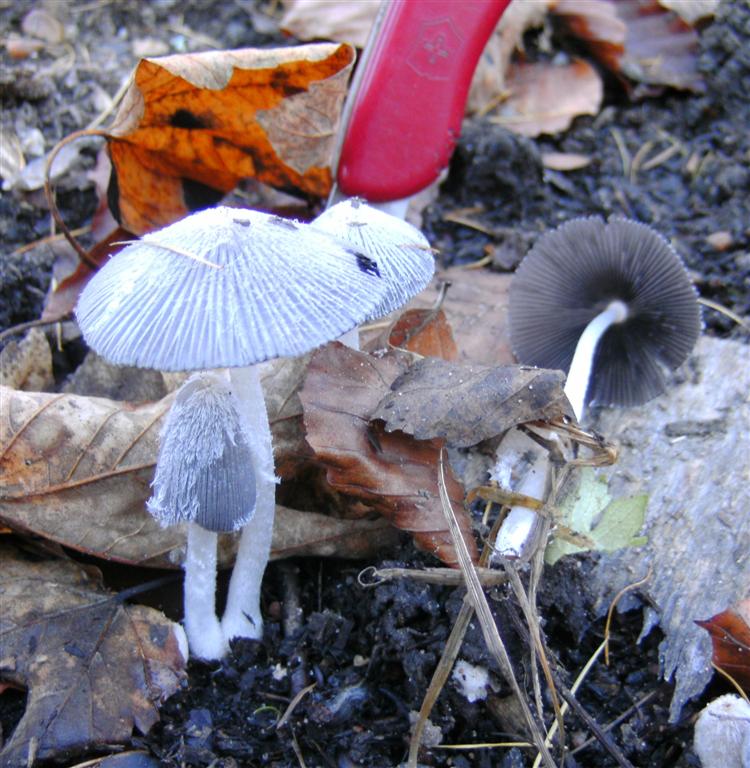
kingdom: Fungi
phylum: Basidiomycota
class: Agaricomycetes
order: Agaricales
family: Psathyrellaceae
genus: Coprinopsis
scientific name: Coprinopsis lagopus
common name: dunstokket blækhat
